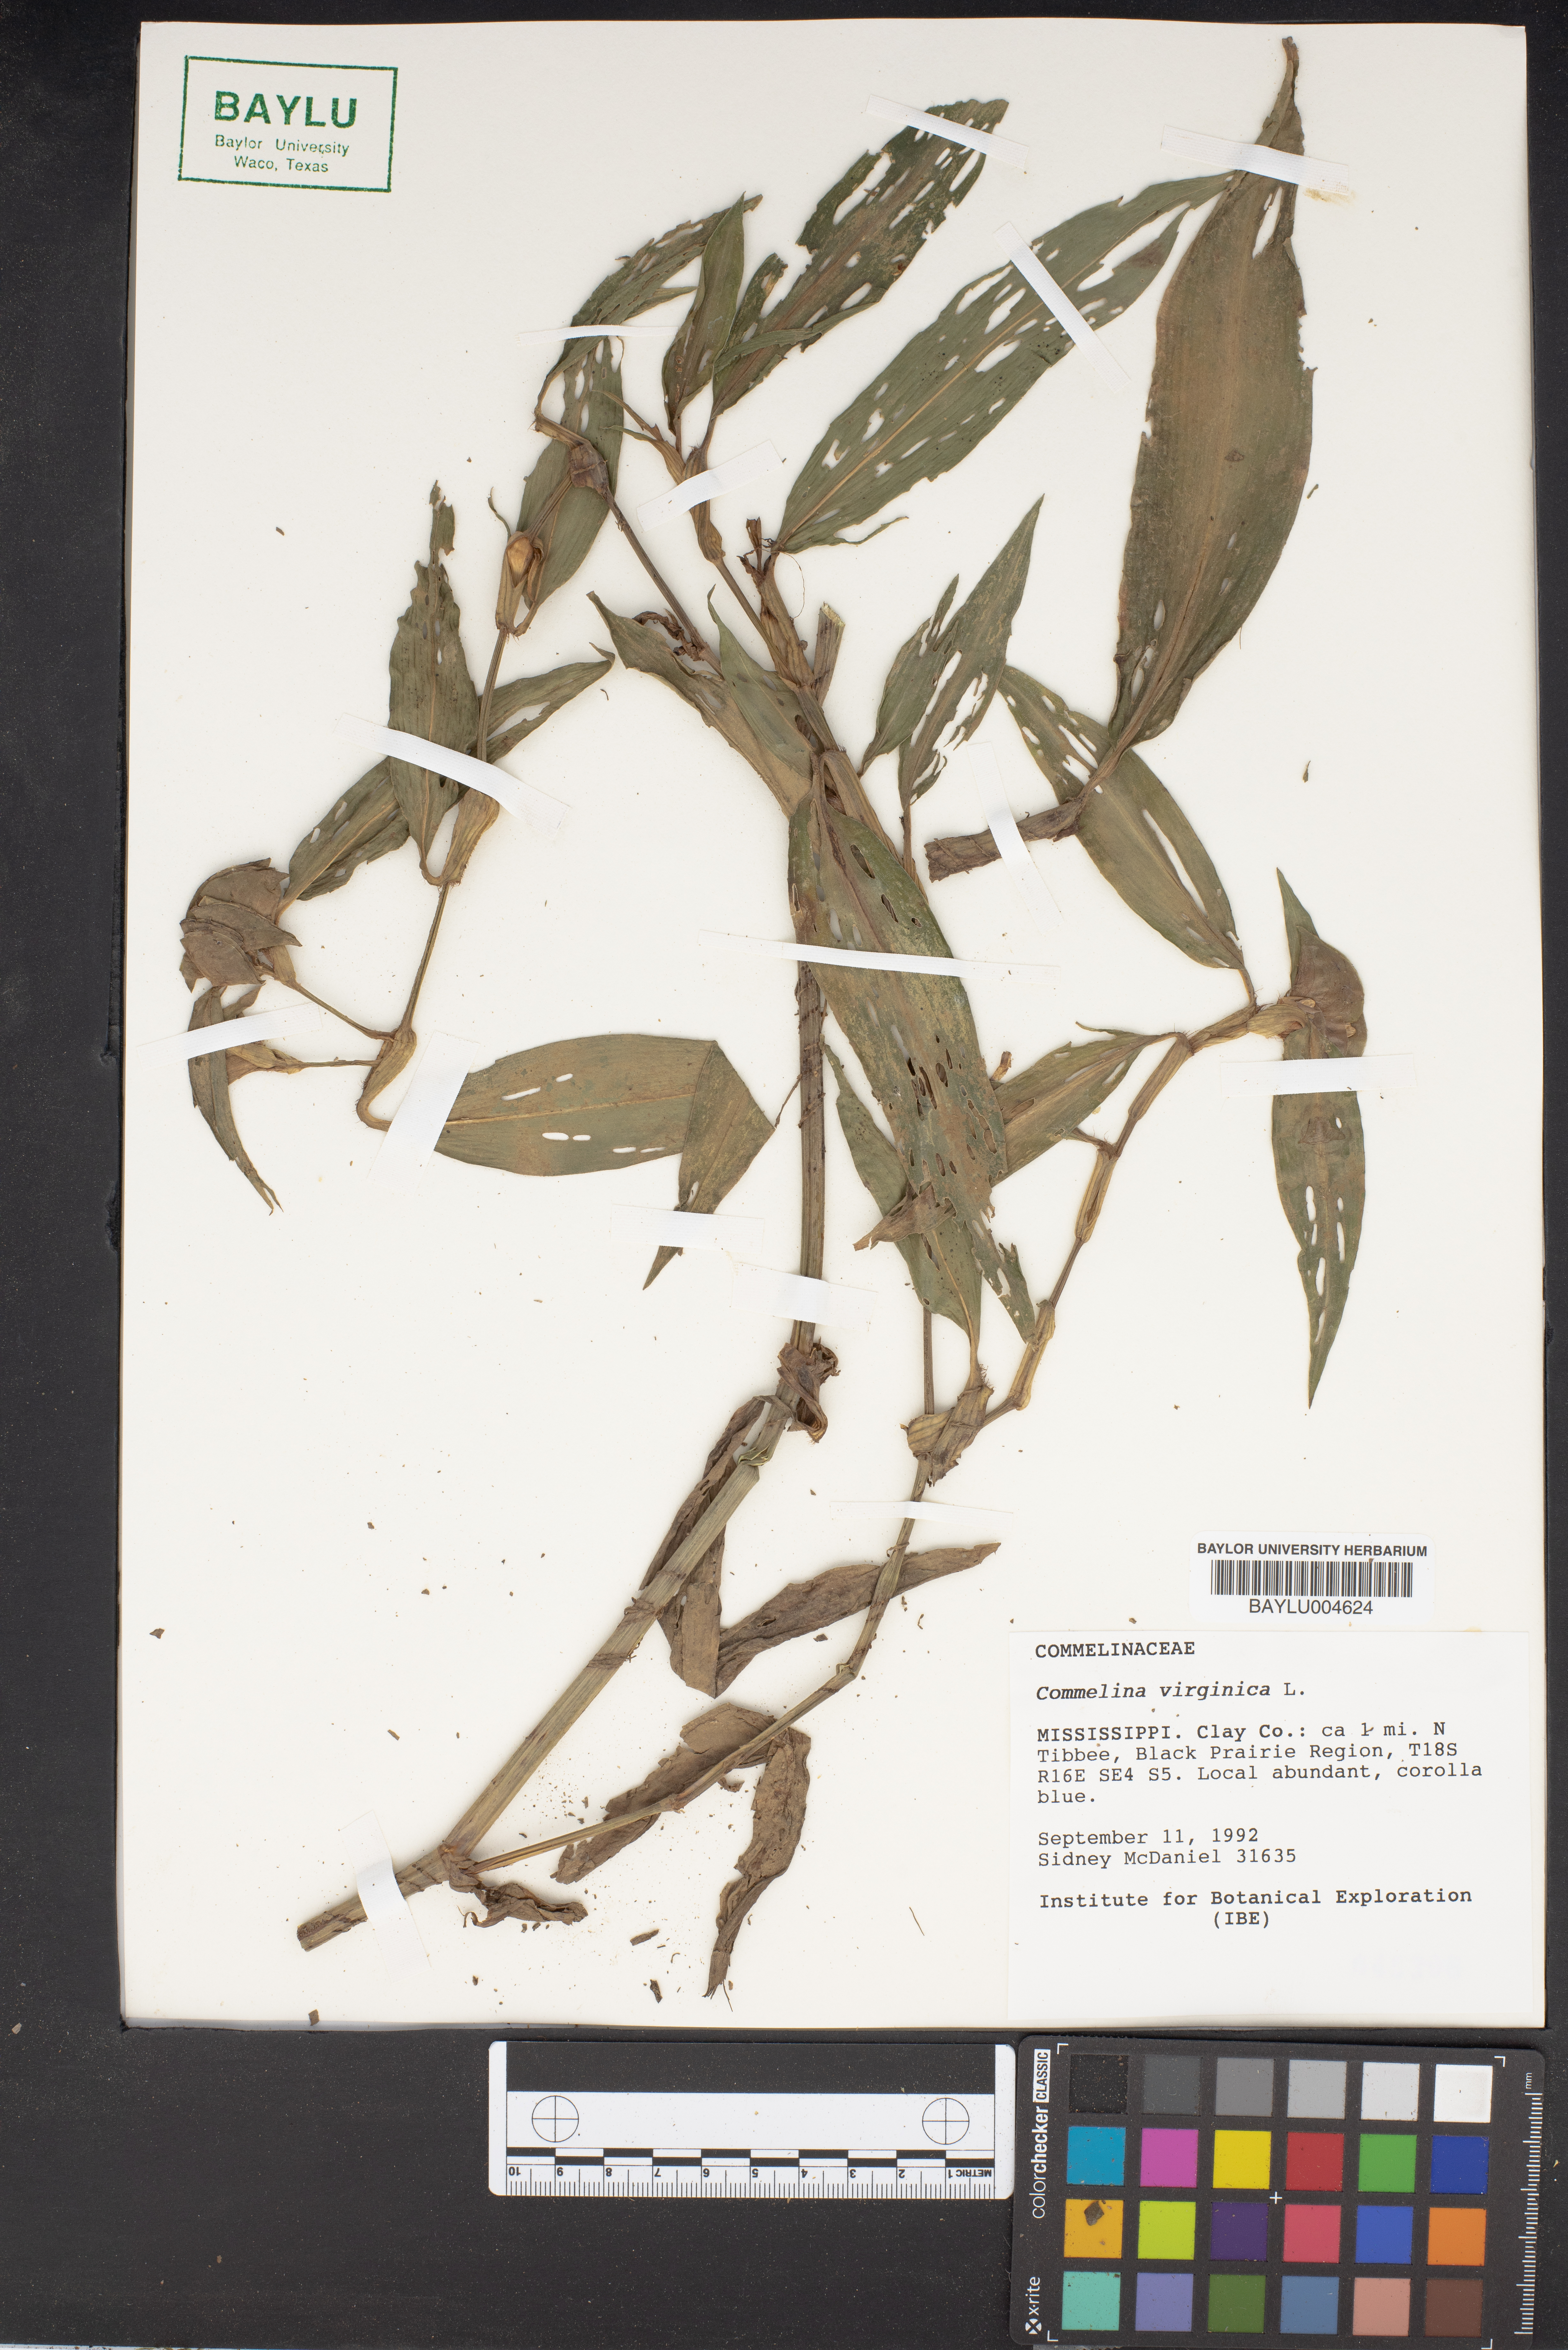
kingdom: Plantae
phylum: Tracheophyta
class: Liliopsida
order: Commelinales
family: Commelinaceae
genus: Commelina
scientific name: Commelina virginica
